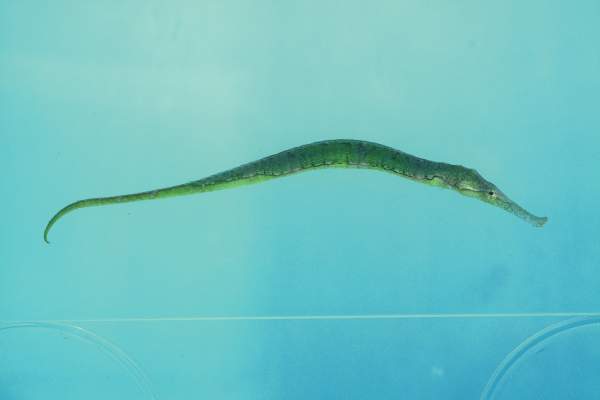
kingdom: Animalia
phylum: Chordata
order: Syngnathiformes
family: Syngnathidae
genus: Syngnathoides
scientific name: Syngnathoides biaculeatus
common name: Alligator pipefish
